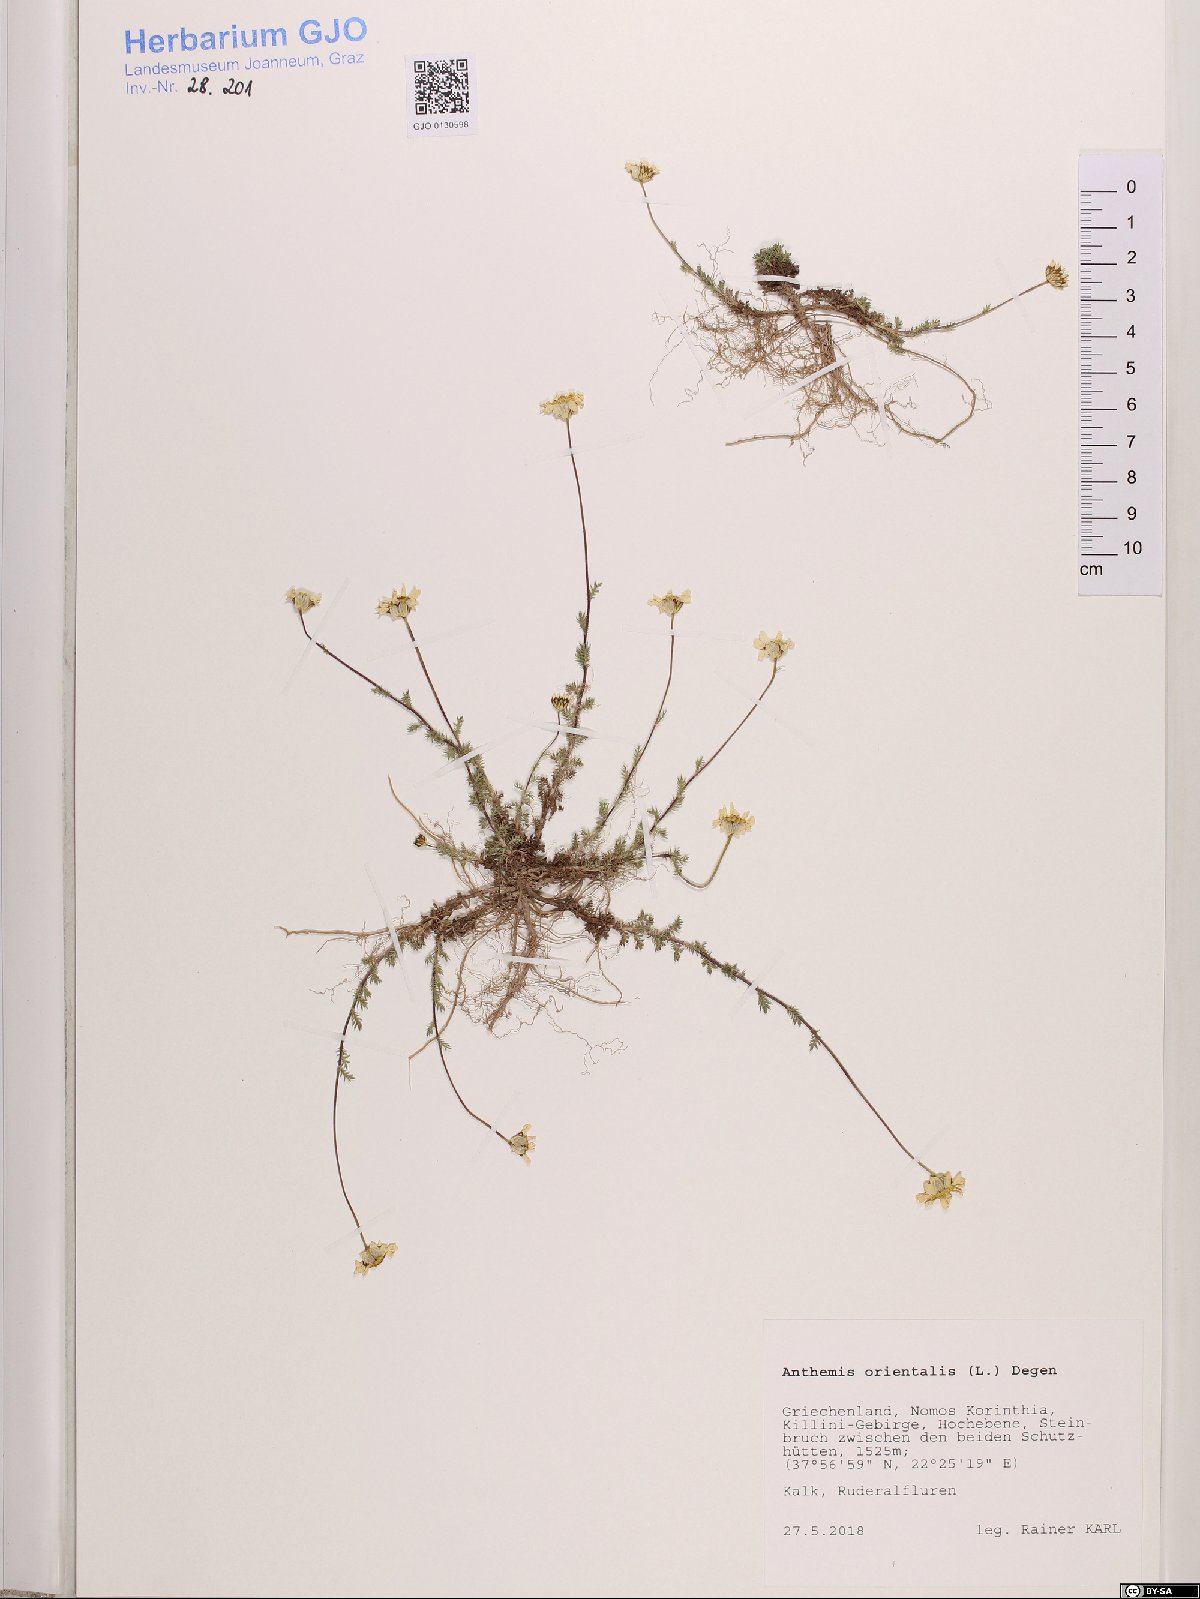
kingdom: Plantae
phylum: Tracheophyta
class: Magnoliopsida
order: Asterales
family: Asteraceae
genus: Anthemis
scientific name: Anthemis orientalis
